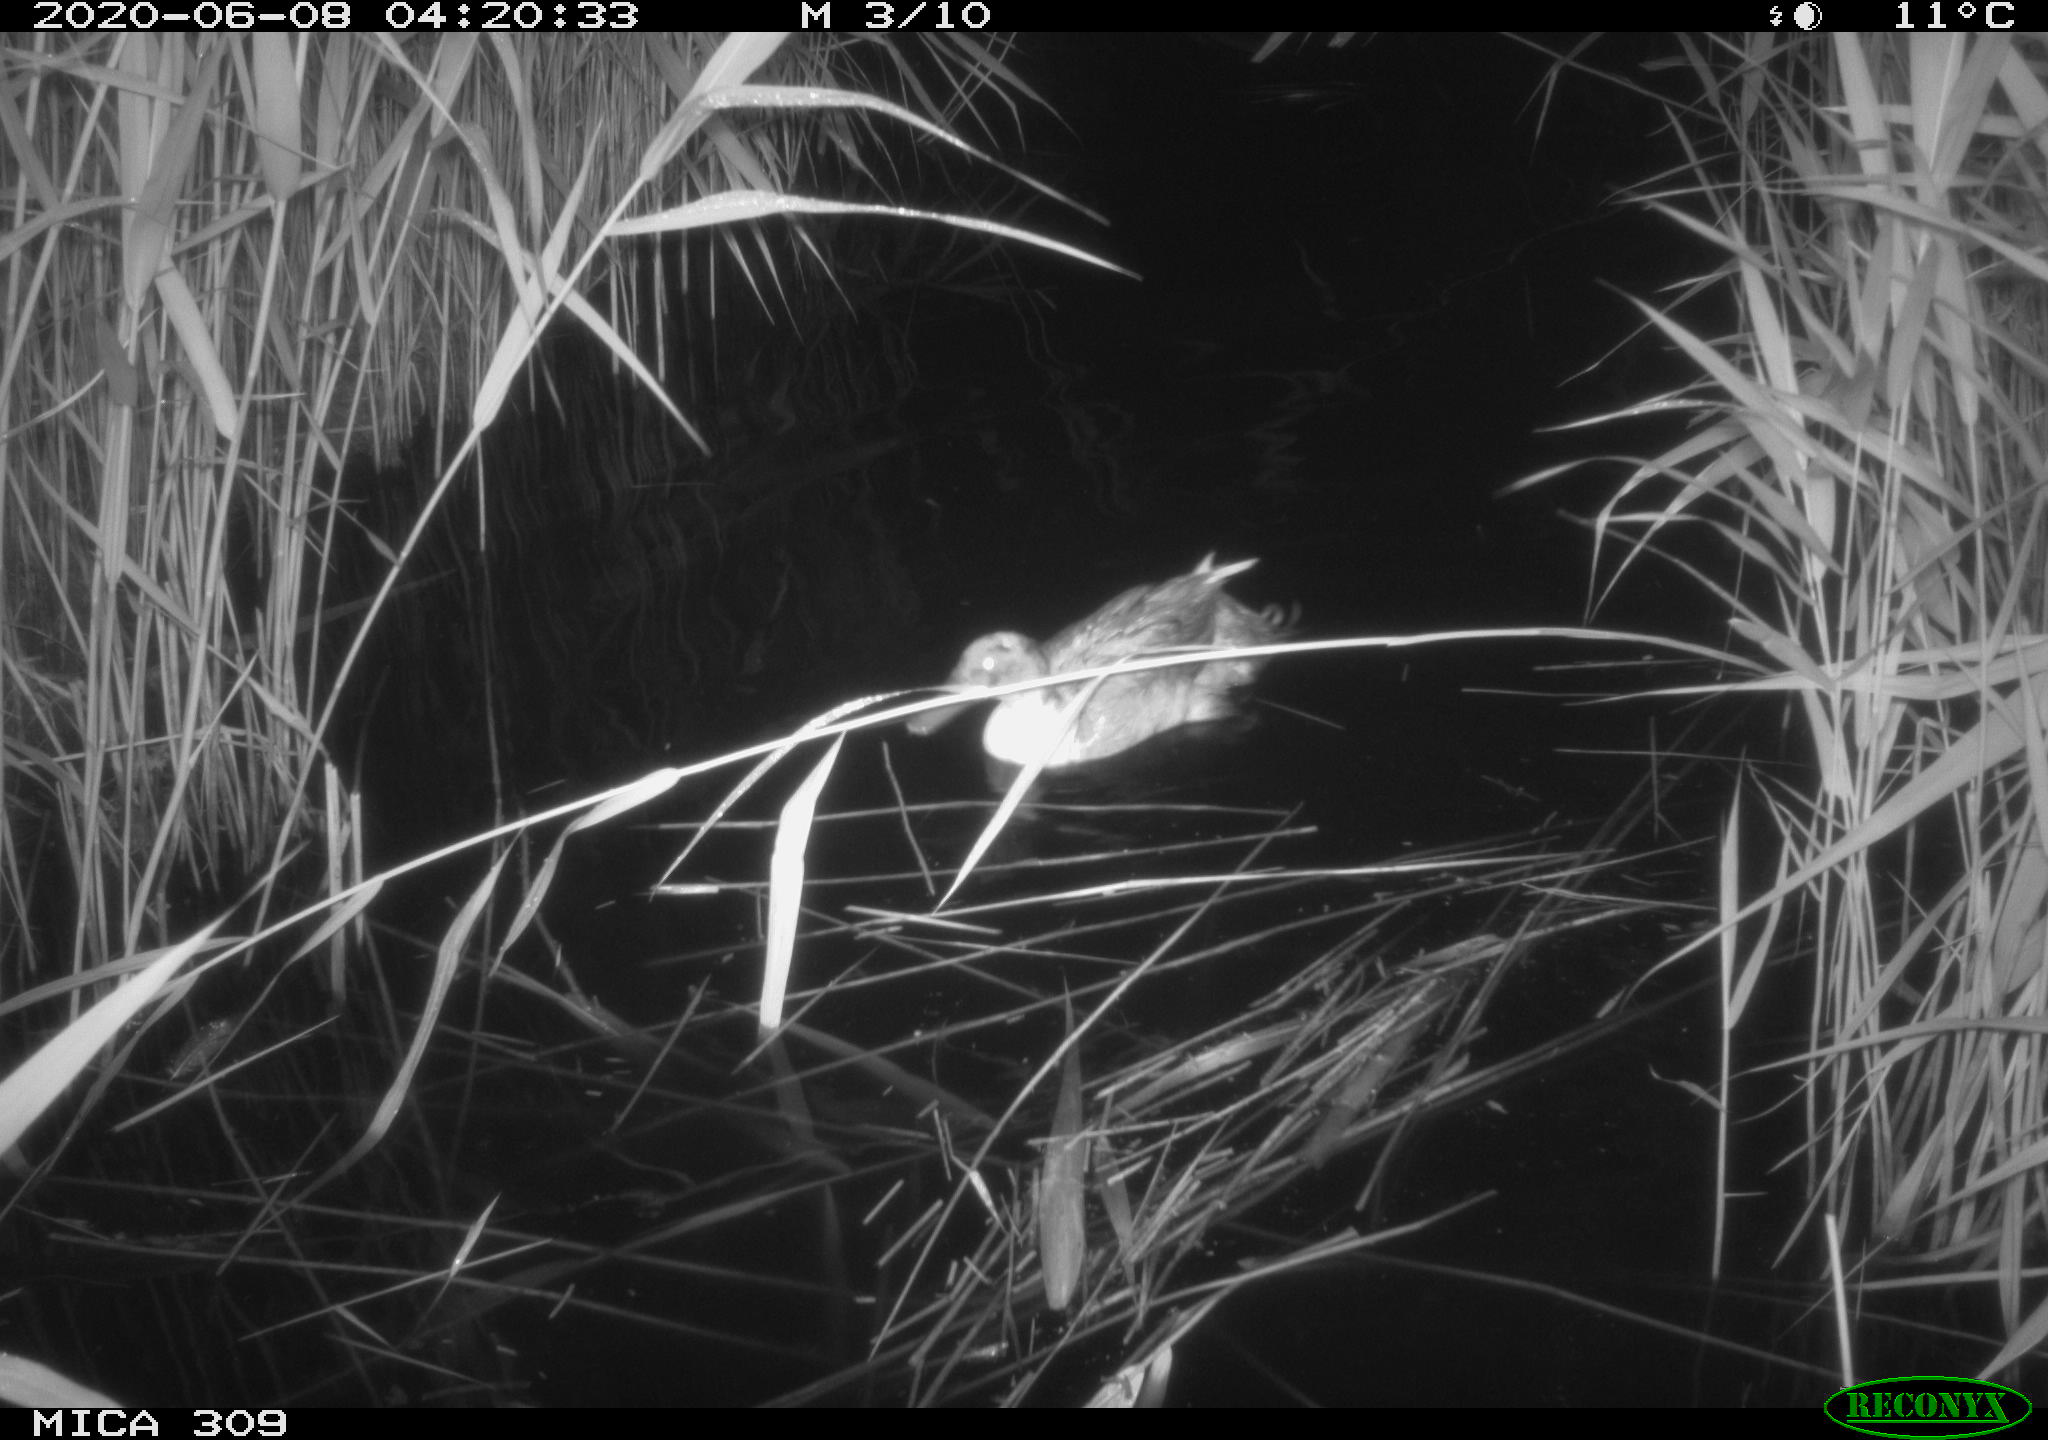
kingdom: Animalia
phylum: Chordata
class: Aves
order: Anseriformes
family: Anatidae
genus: Anas
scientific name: Anas platyrhynchos
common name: Mallard
